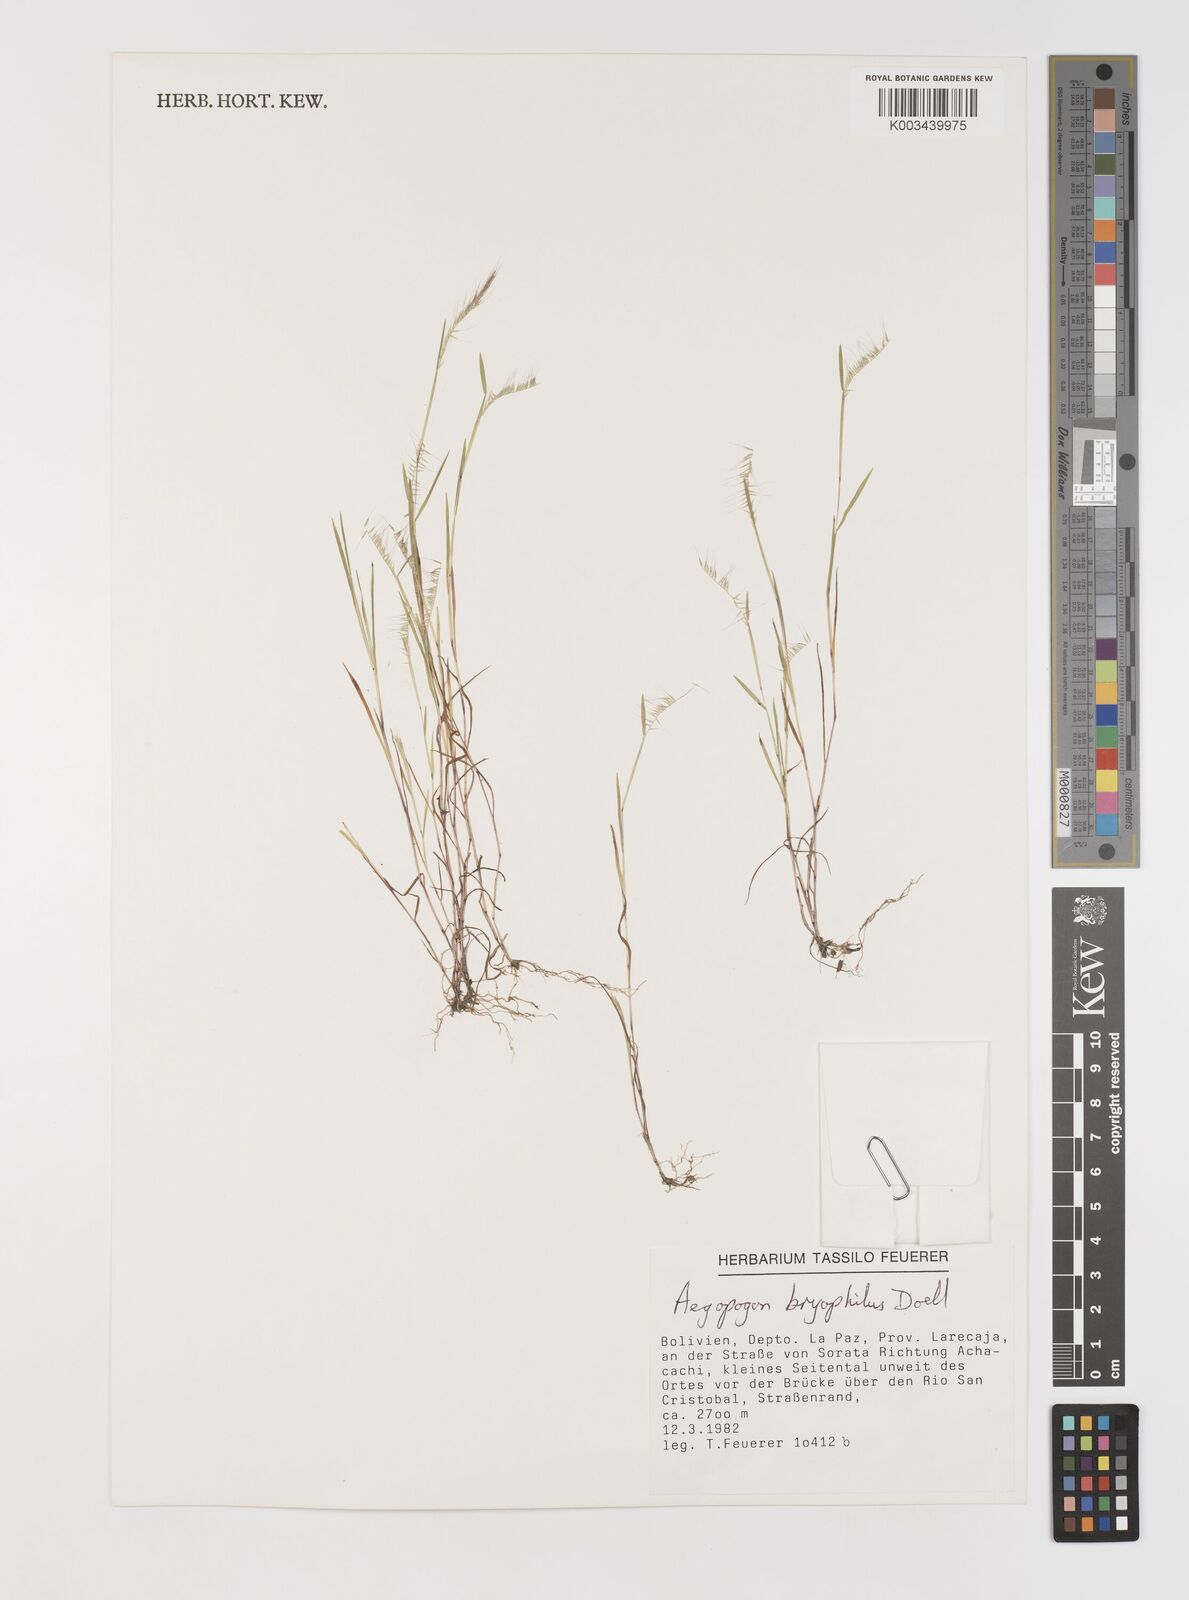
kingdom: Plantae
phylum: Tracheophyta
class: Liliopsida
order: Poales
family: Poaceae
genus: Muhlenbergia
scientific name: Muhlenbergia bryophilus
